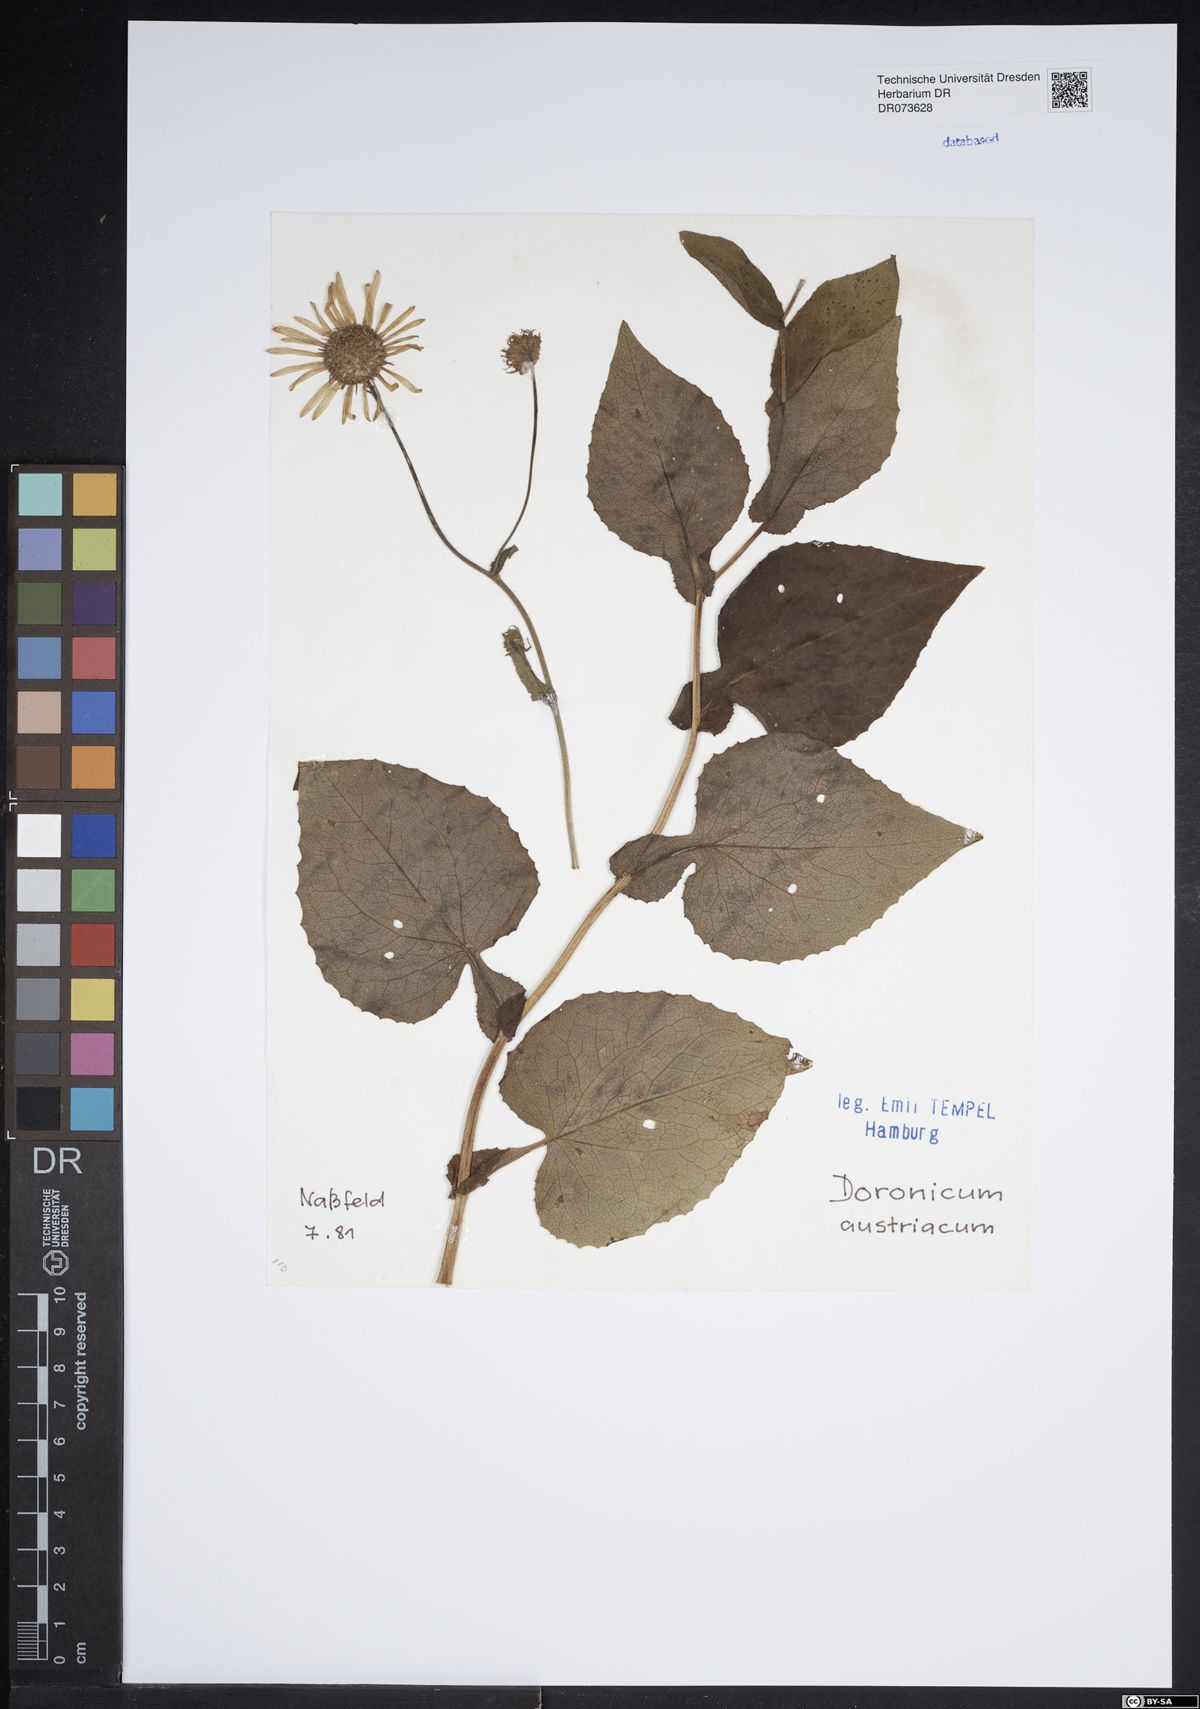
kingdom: Plantae
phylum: Tracheophyta
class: Magnoliopsida
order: Asterales
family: Asteraceae
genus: Doronicum
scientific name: Doronicum austriacum
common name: Austrian leopard's-bane
